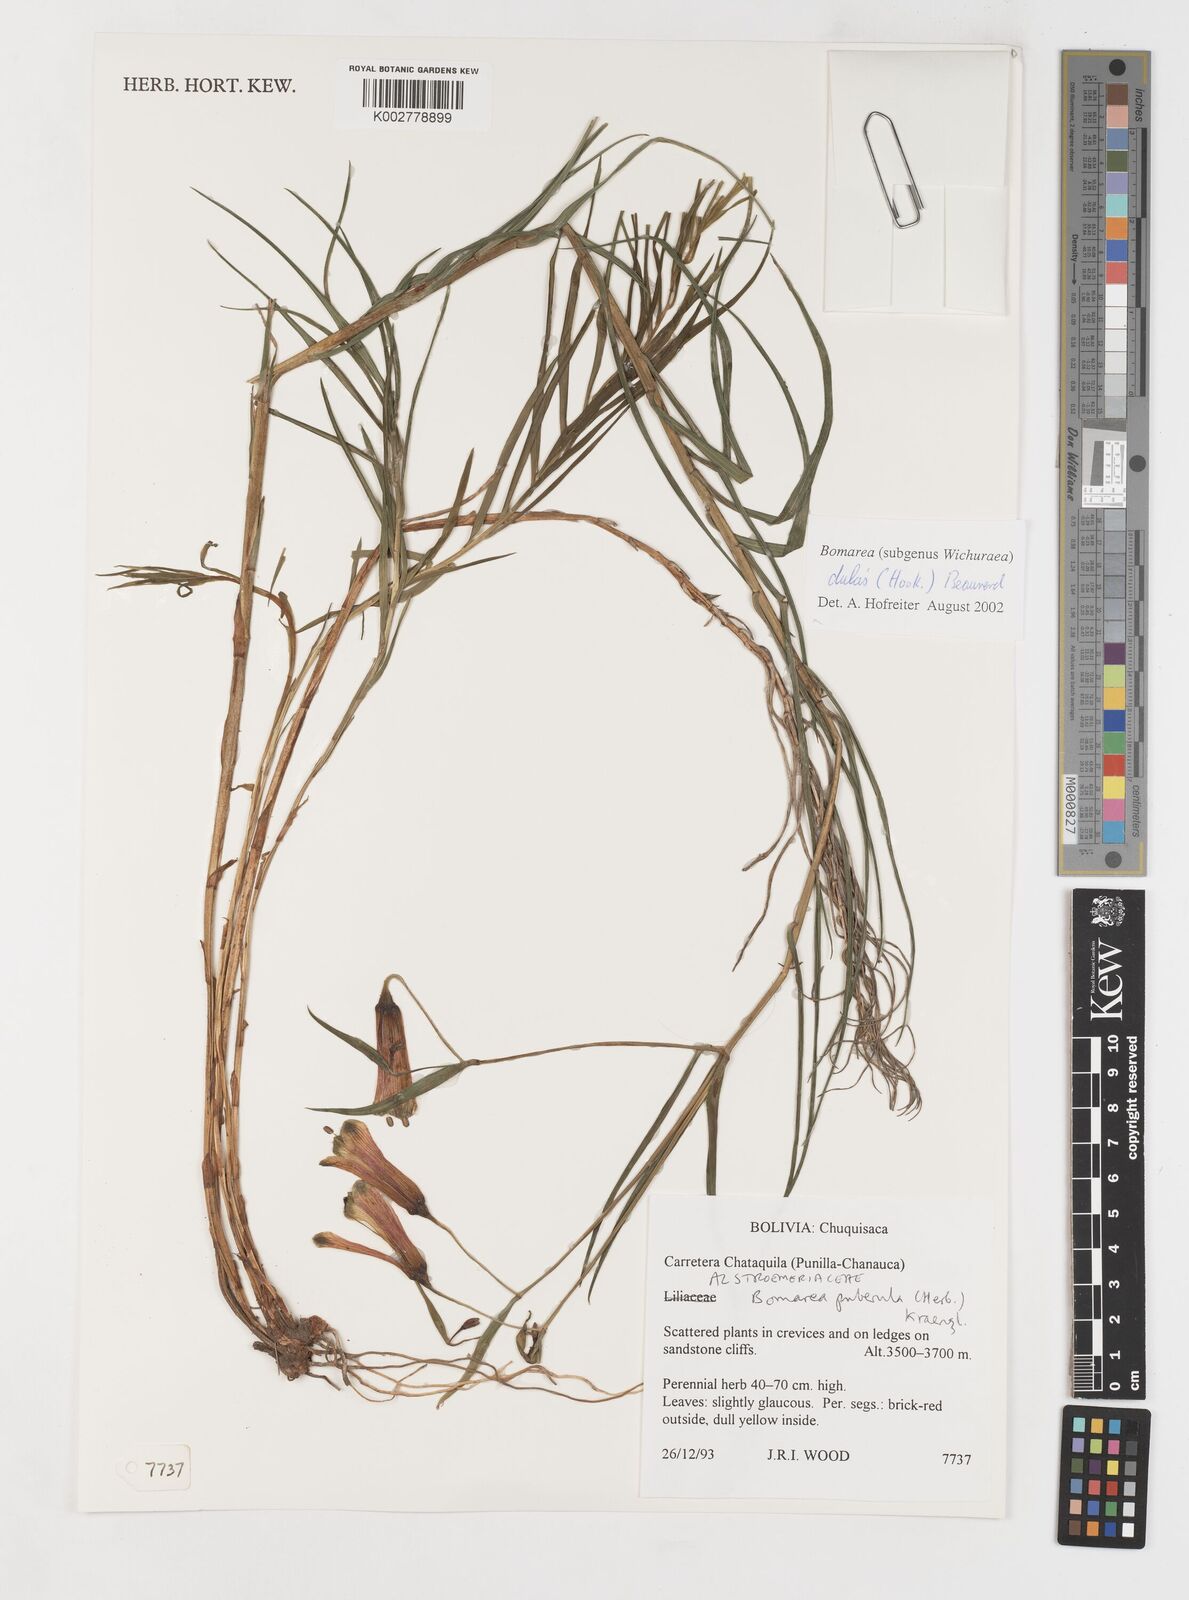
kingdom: Plantae
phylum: Tracheophyta
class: Liliopsida
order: Liliales
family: Alstroemeriaceae
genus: Bomarea
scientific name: Bomarea dulcis
